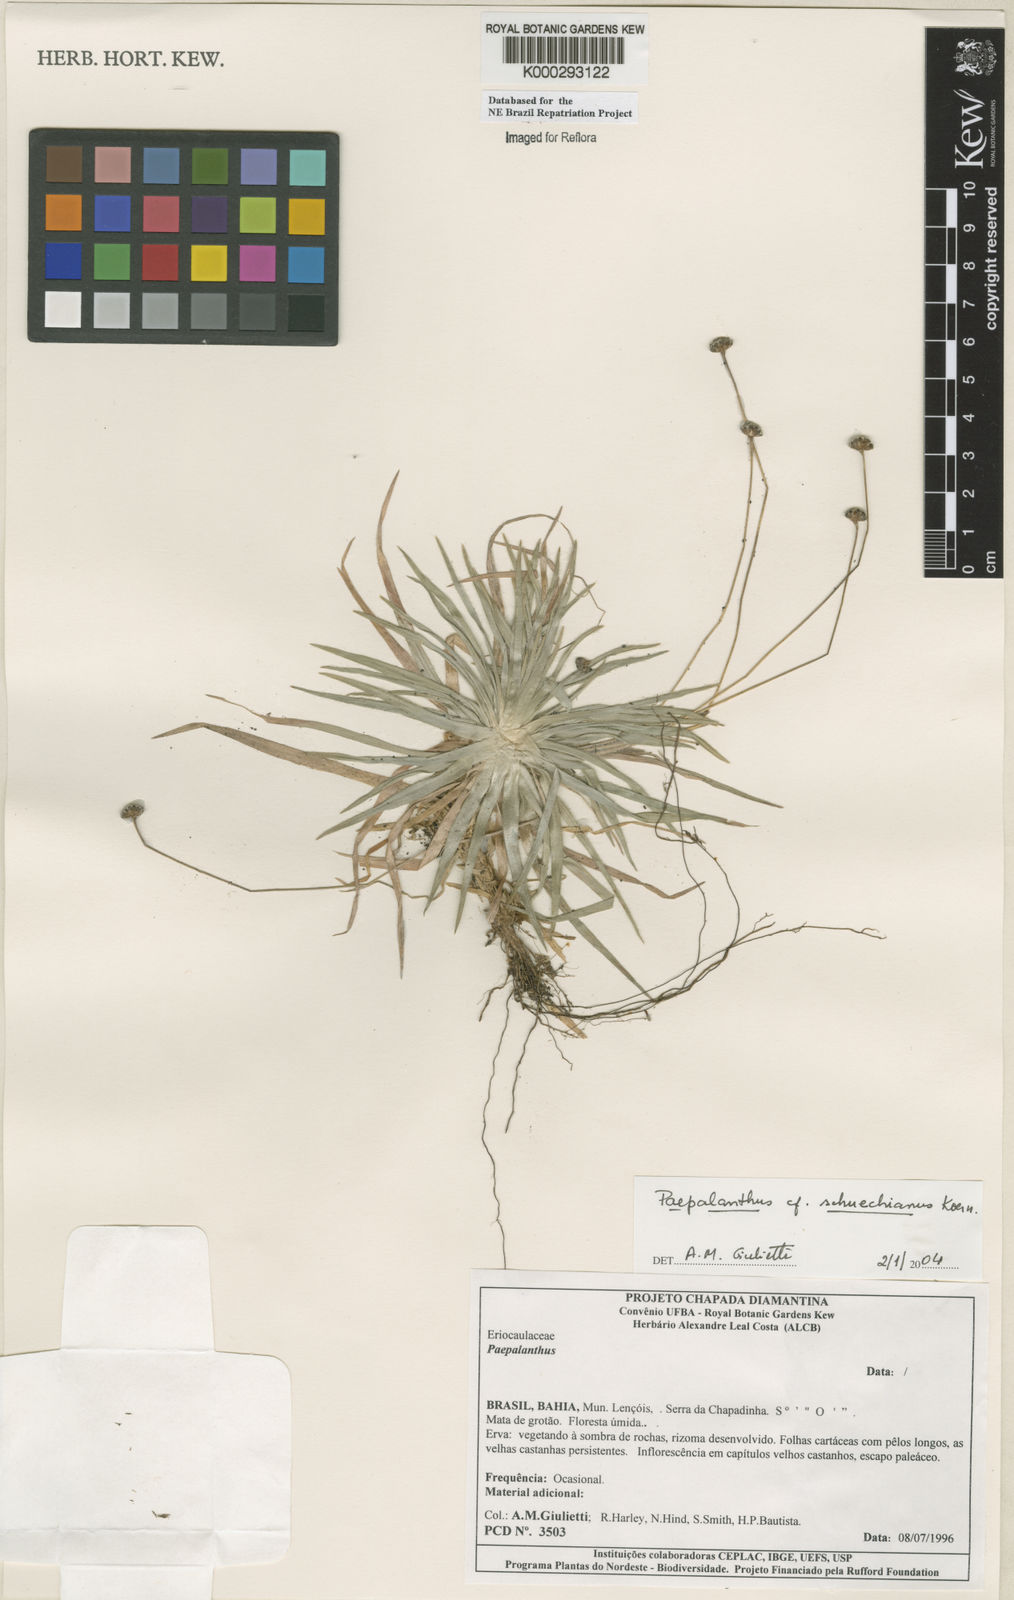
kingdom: Plantae
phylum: Tracheophyta
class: Liliopsida
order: Poales
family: Eriocaulaceae
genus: Paepalanthus
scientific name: Paepalanthus
